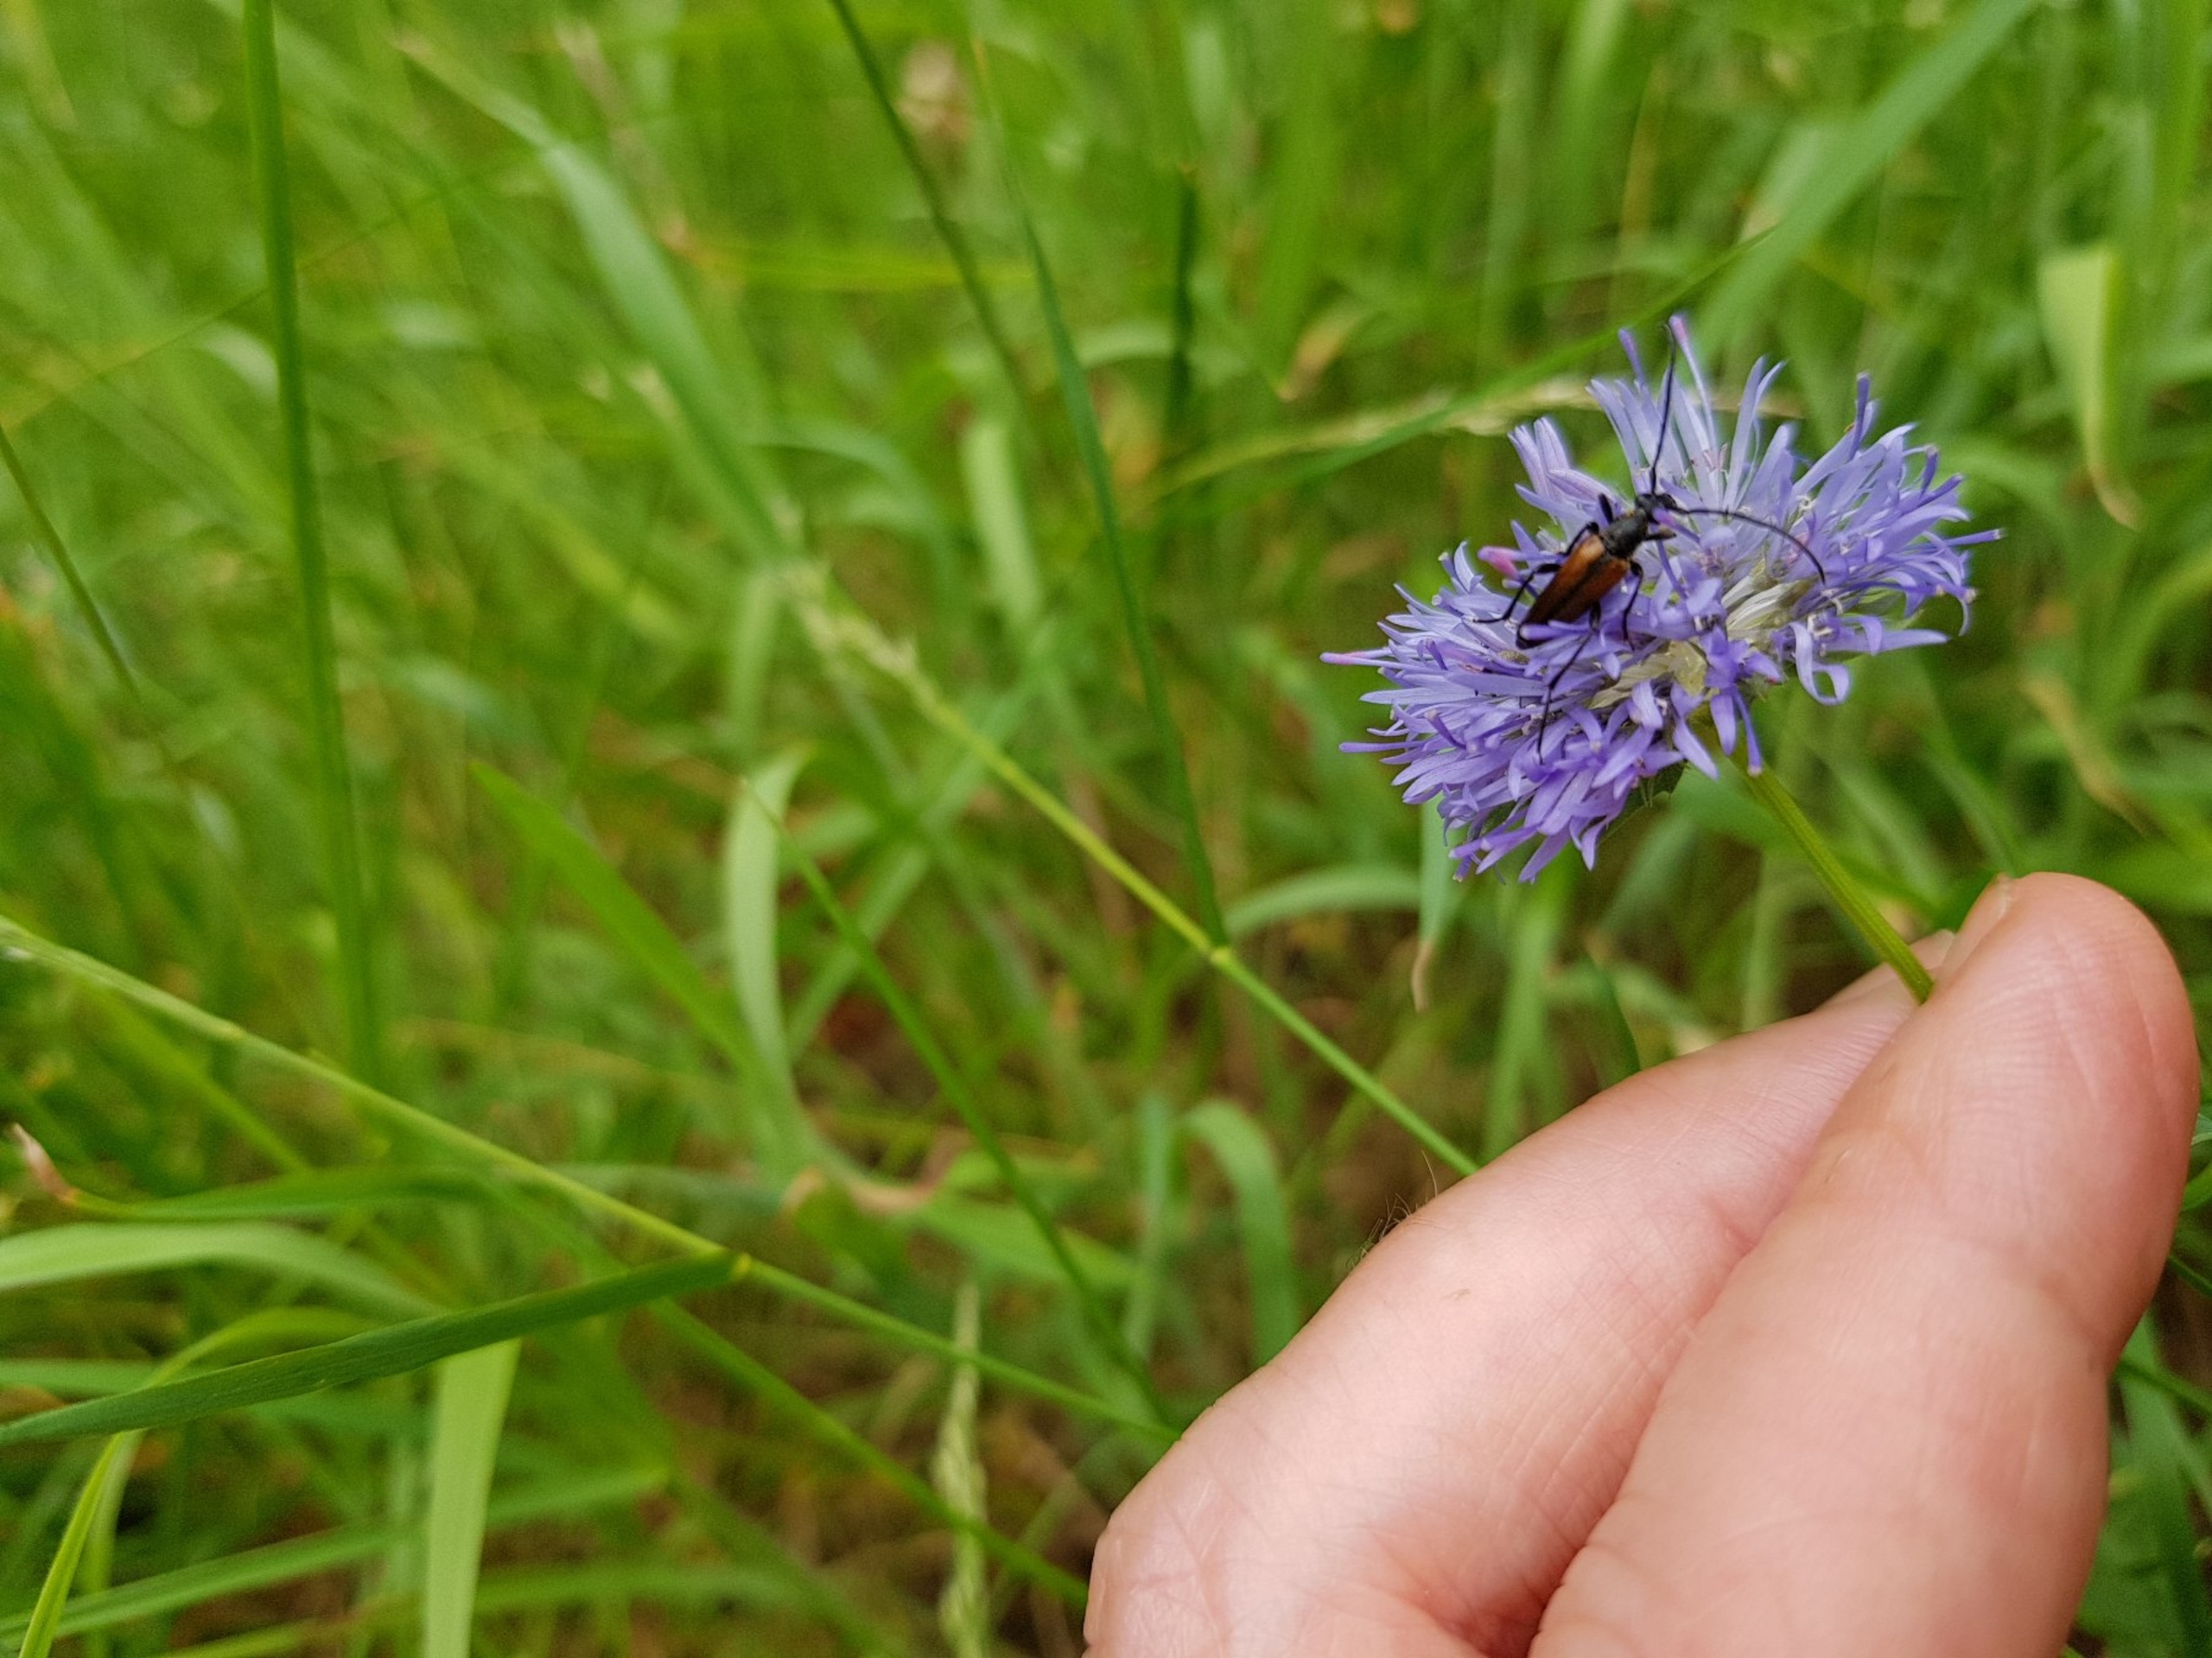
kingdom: Animalia
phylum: Arthropoda
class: Insecta
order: Coleoptera
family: Cerambycidae
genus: Stenurella
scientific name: Stenurella melanura
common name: Sortsømmet blomsterbuk
